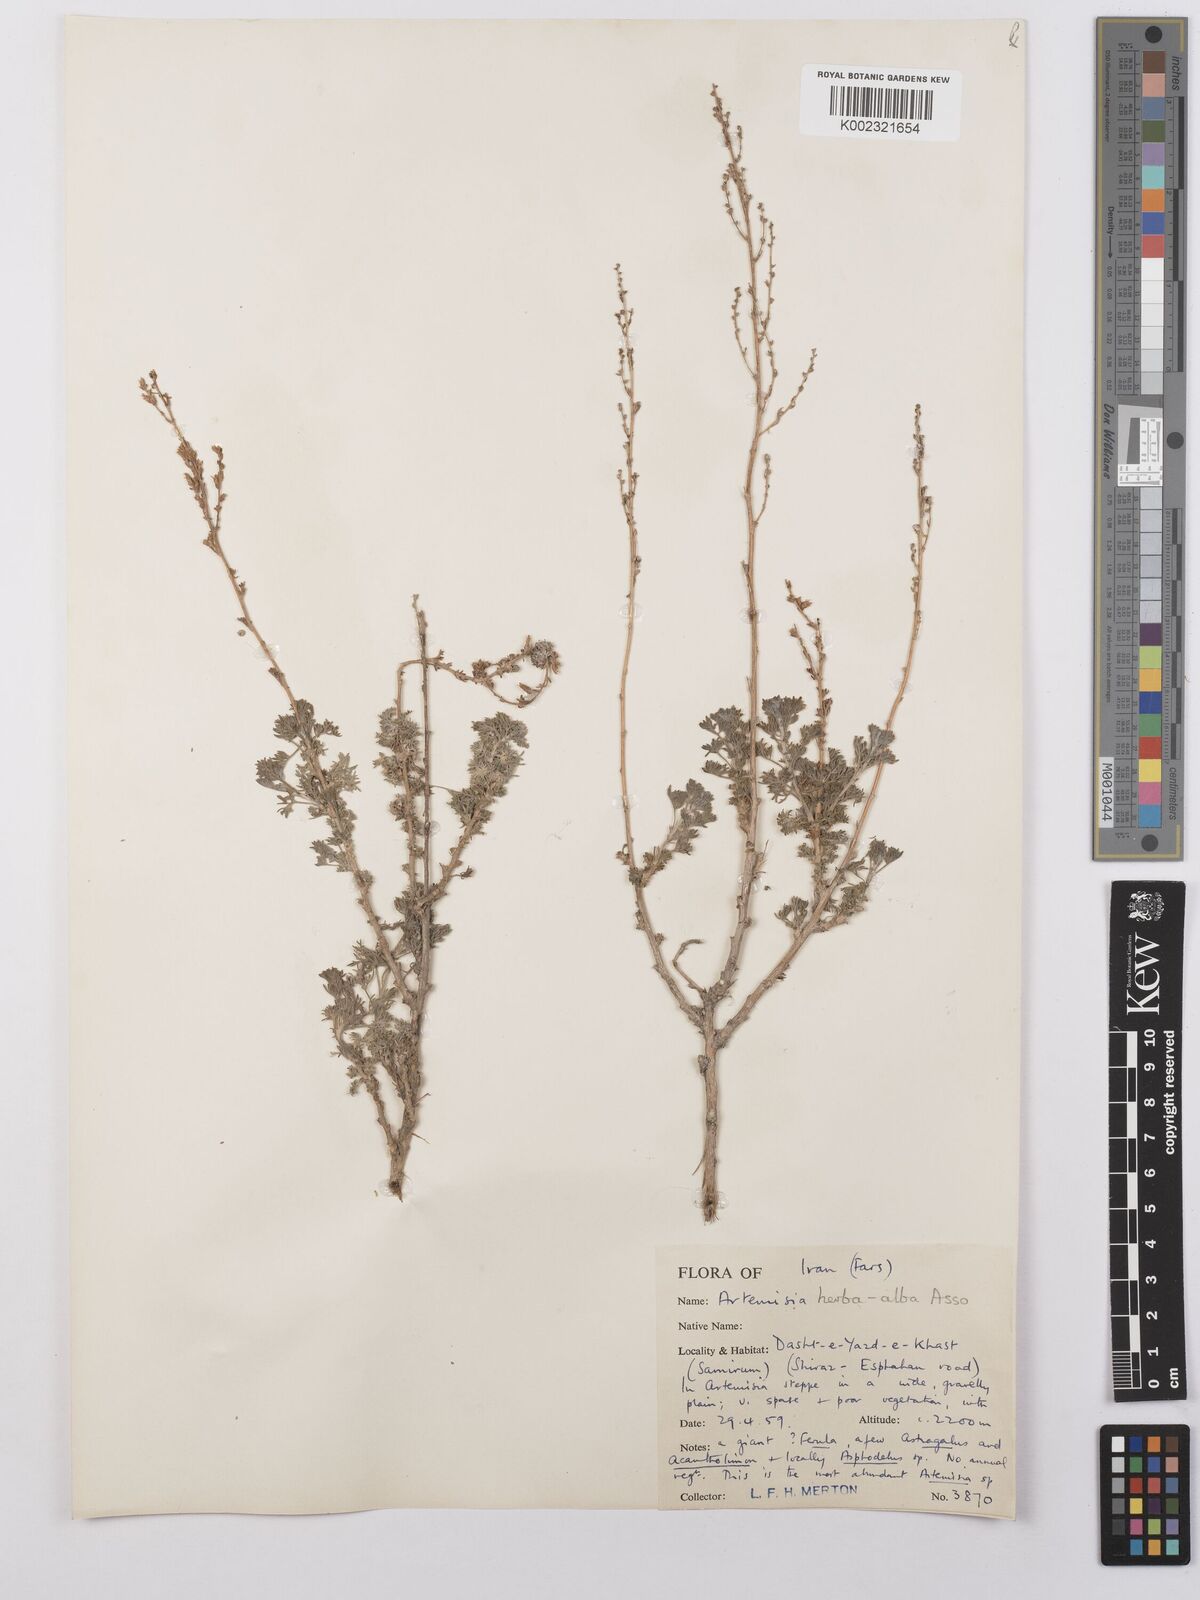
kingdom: Plantae
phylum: Tracheophyta
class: Magnoliopsida
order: Asterales
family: Asteraceae
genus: Artemisia
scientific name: Artemisia herba-alba
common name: White wormwood
